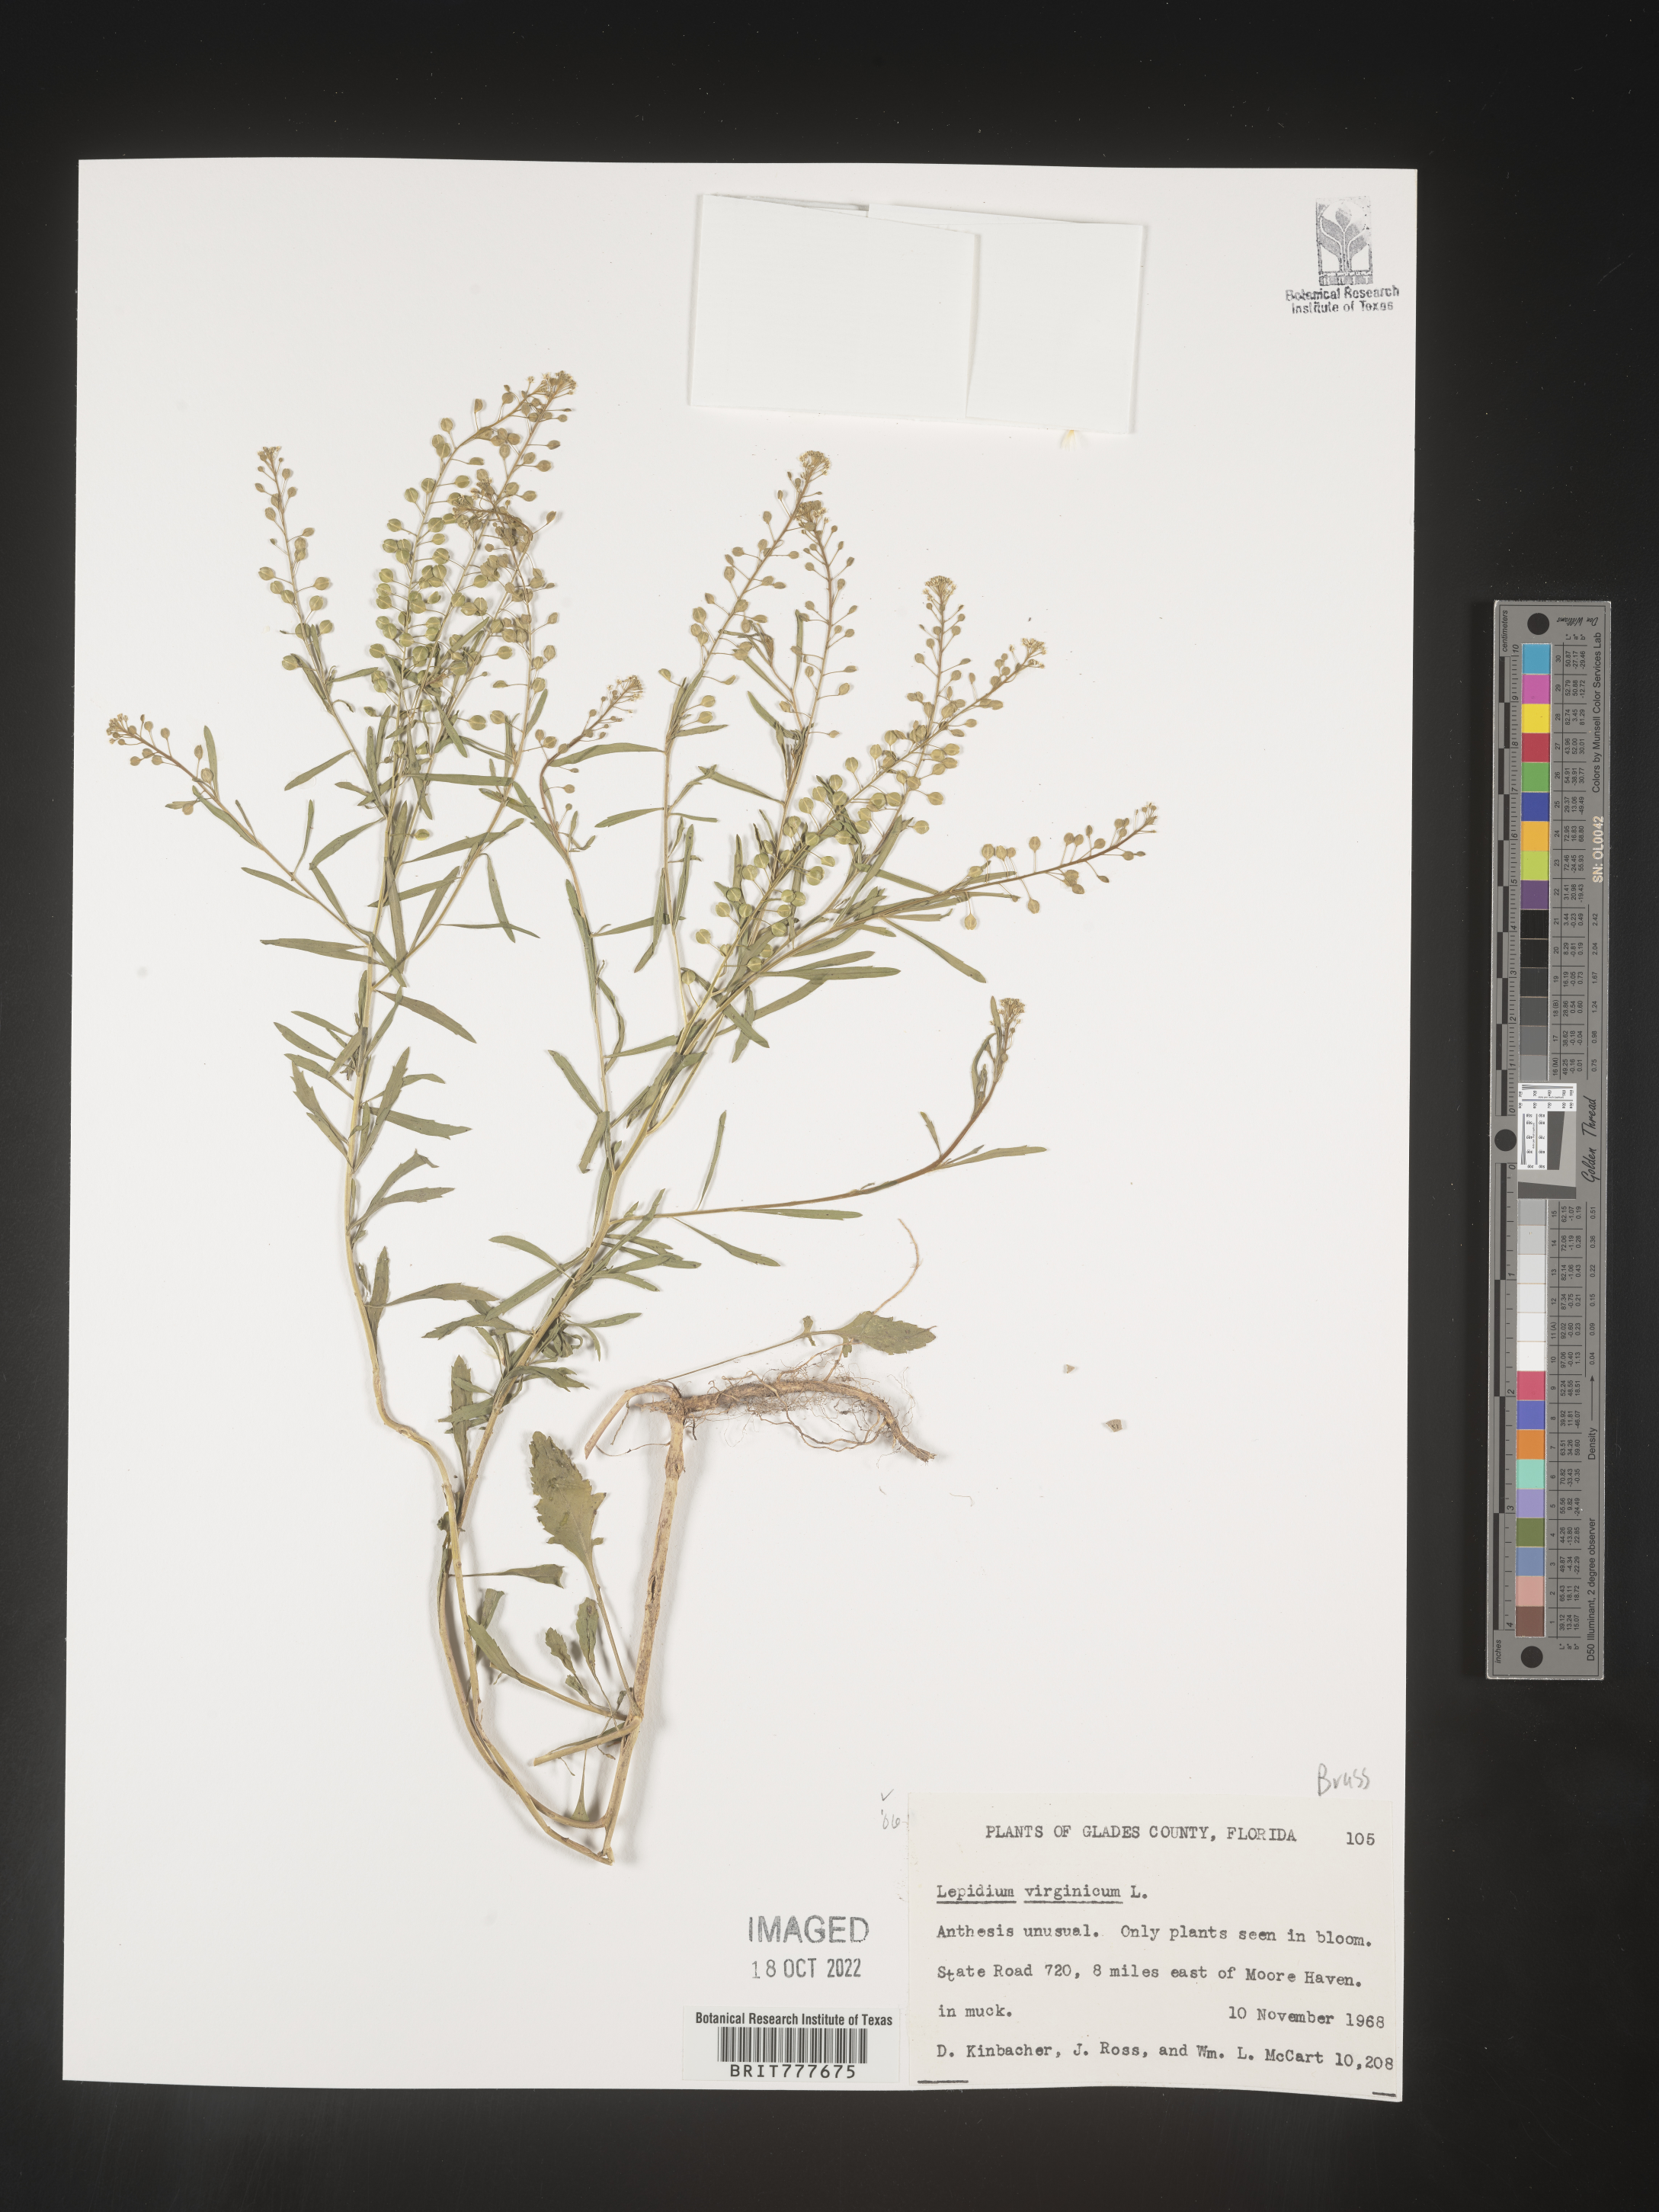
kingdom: Plantae
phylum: Tracheophyta
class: Magnoliopsida
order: Brassicales
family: Brassicaceae
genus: Lepidium
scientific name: Lepidium virginicum
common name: Least pepperwort
